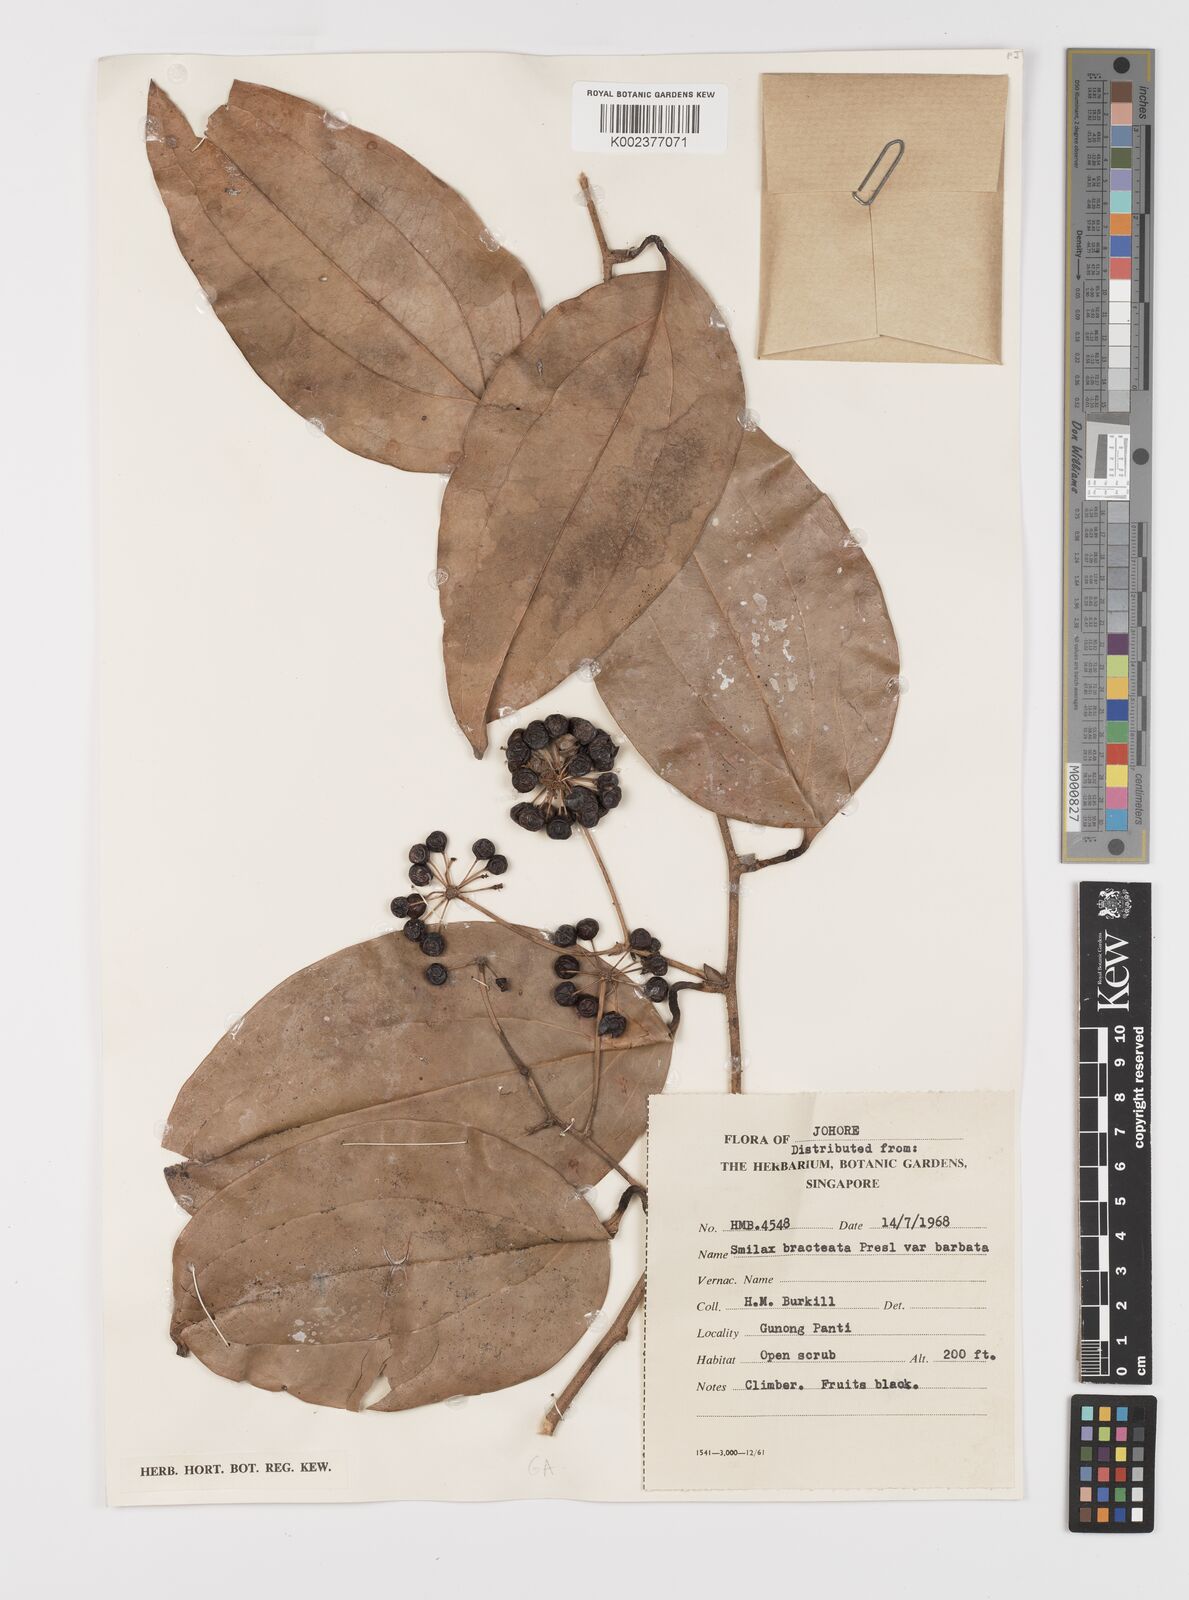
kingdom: Plantae
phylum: Tracheophyta
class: Liliopsida
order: Liliales
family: Smilacaceae
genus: Smilax
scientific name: Smilax bracteata
